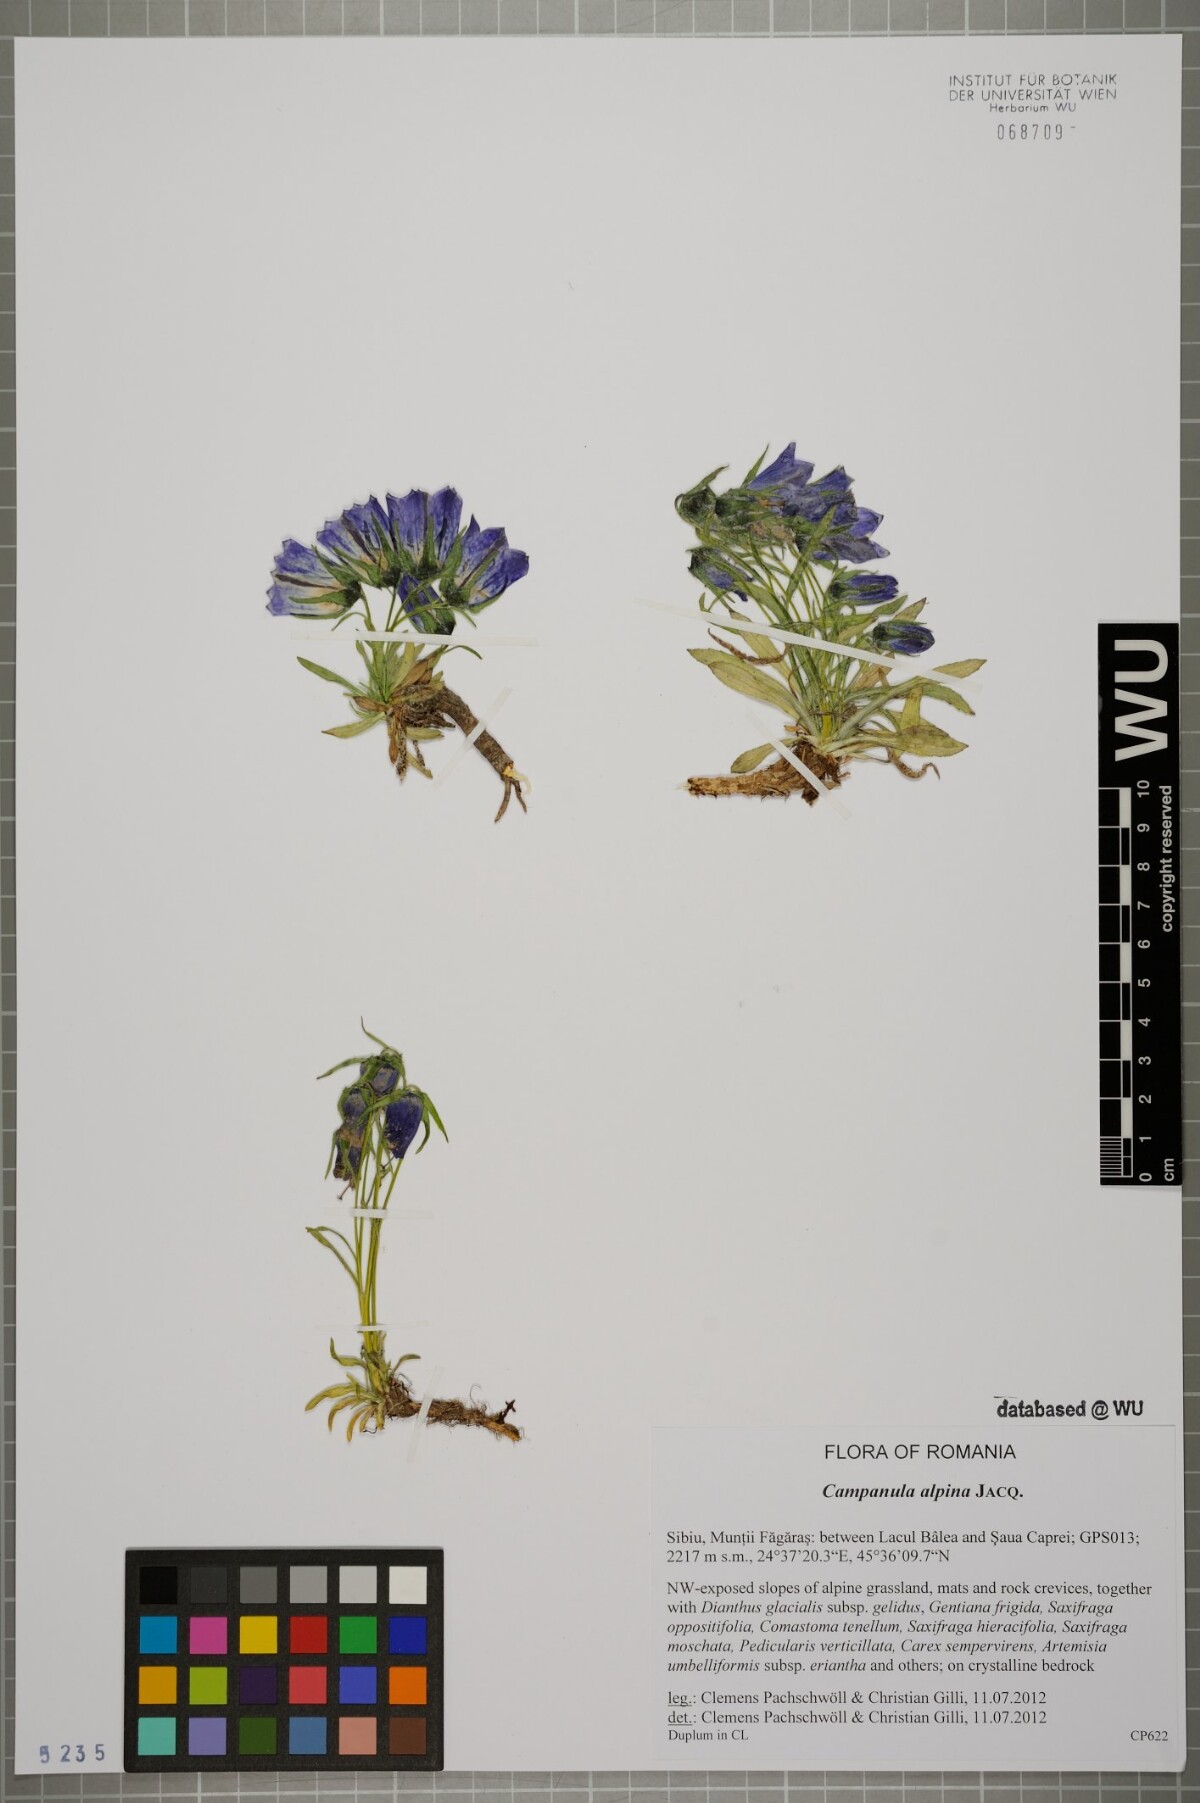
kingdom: Plantae
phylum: Tracheophyta
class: Magnoliopsida
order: Asterales
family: Campanulaceae
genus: Campanula
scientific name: Campanula alpina
